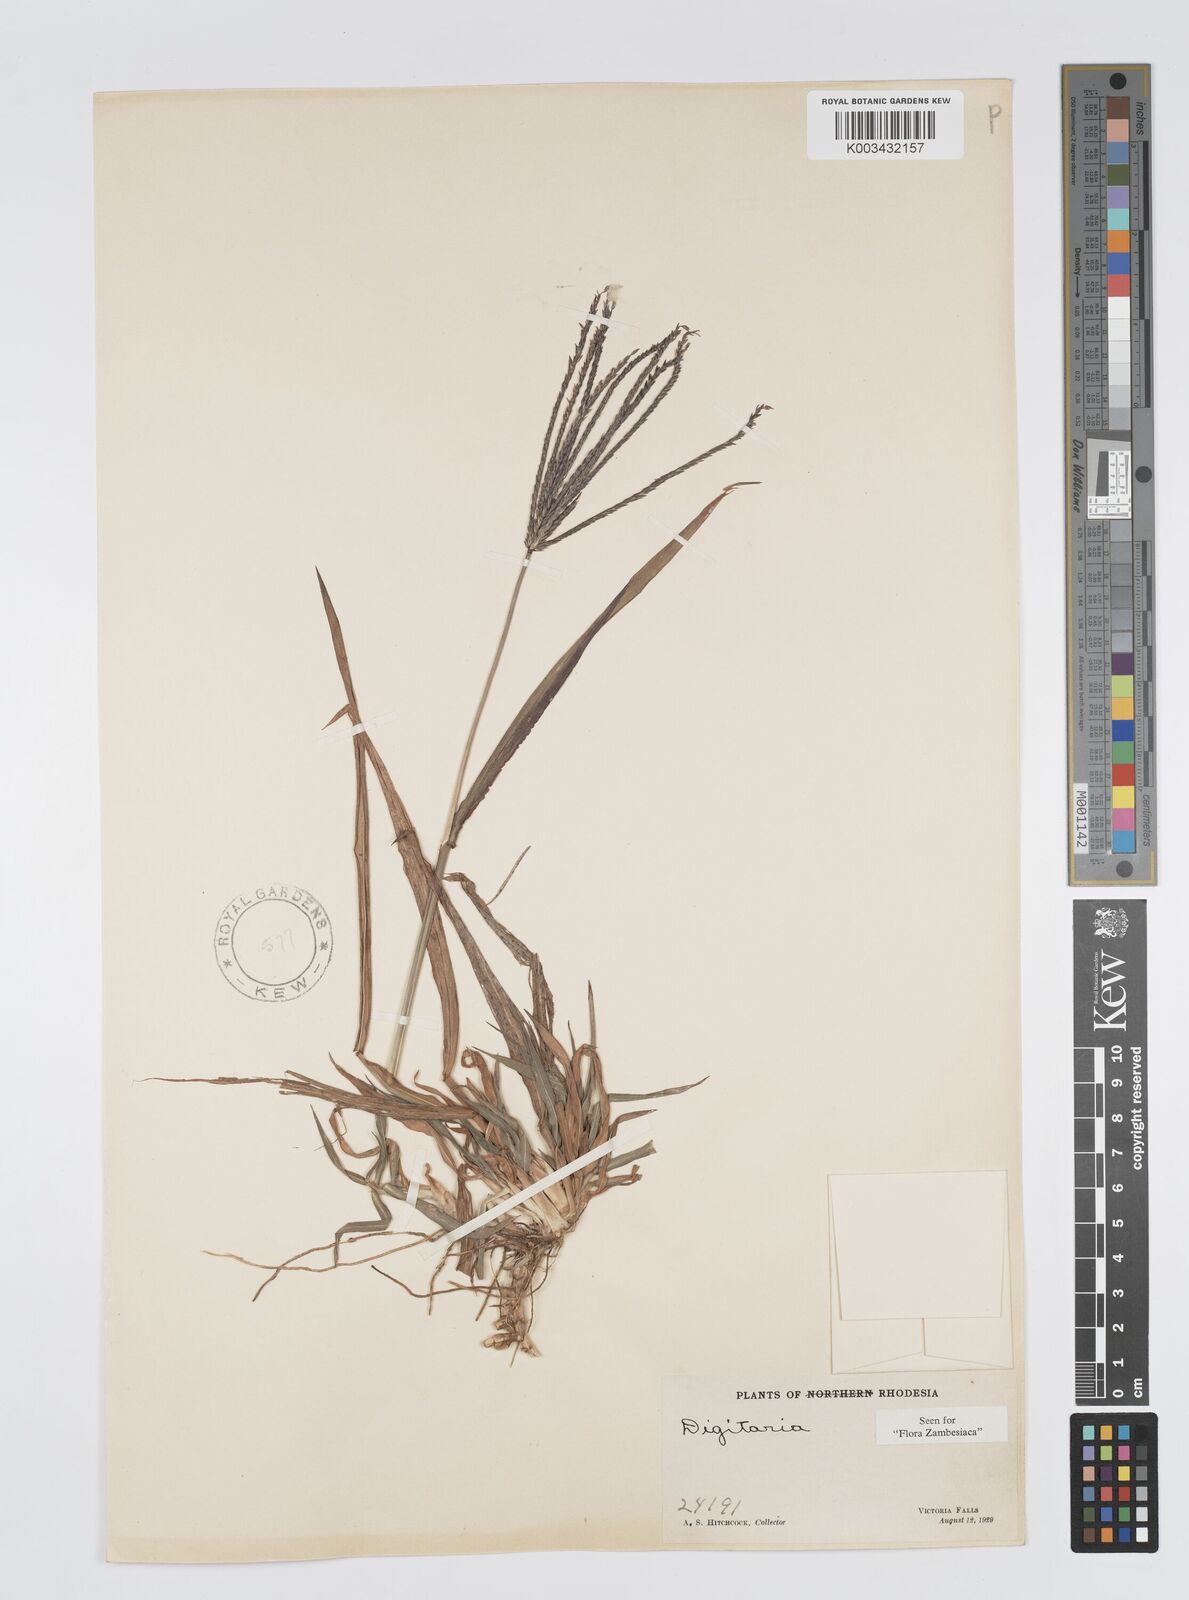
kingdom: Plantae
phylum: Tracheophyta
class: Liliopsida
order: Poales
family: Poaceae
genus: Digitaria
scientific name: Digitaria milanjiana
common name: Madagascar crabgrass
